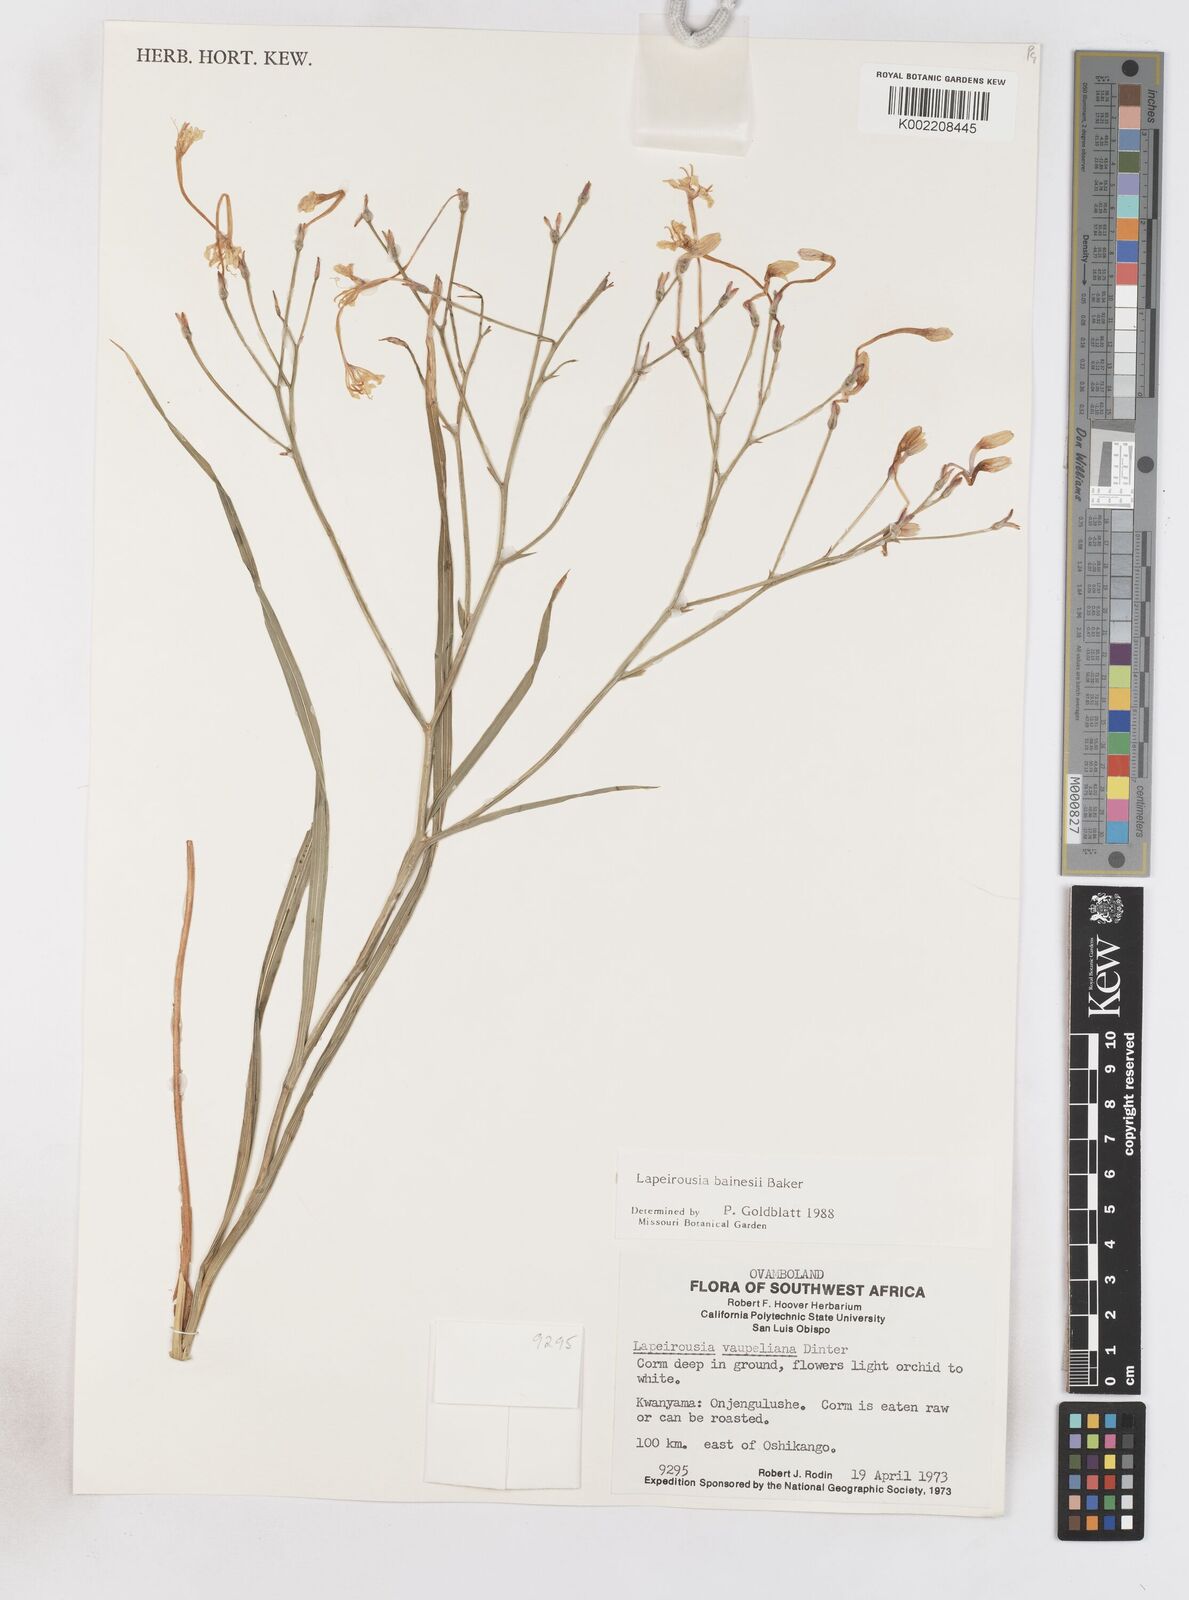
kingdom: Plantae
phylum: Tracheophyta
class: Liliopsida
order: Asparagales
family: Iridaceae
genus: Afrosolen
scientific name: Afrosolen erythranthus
